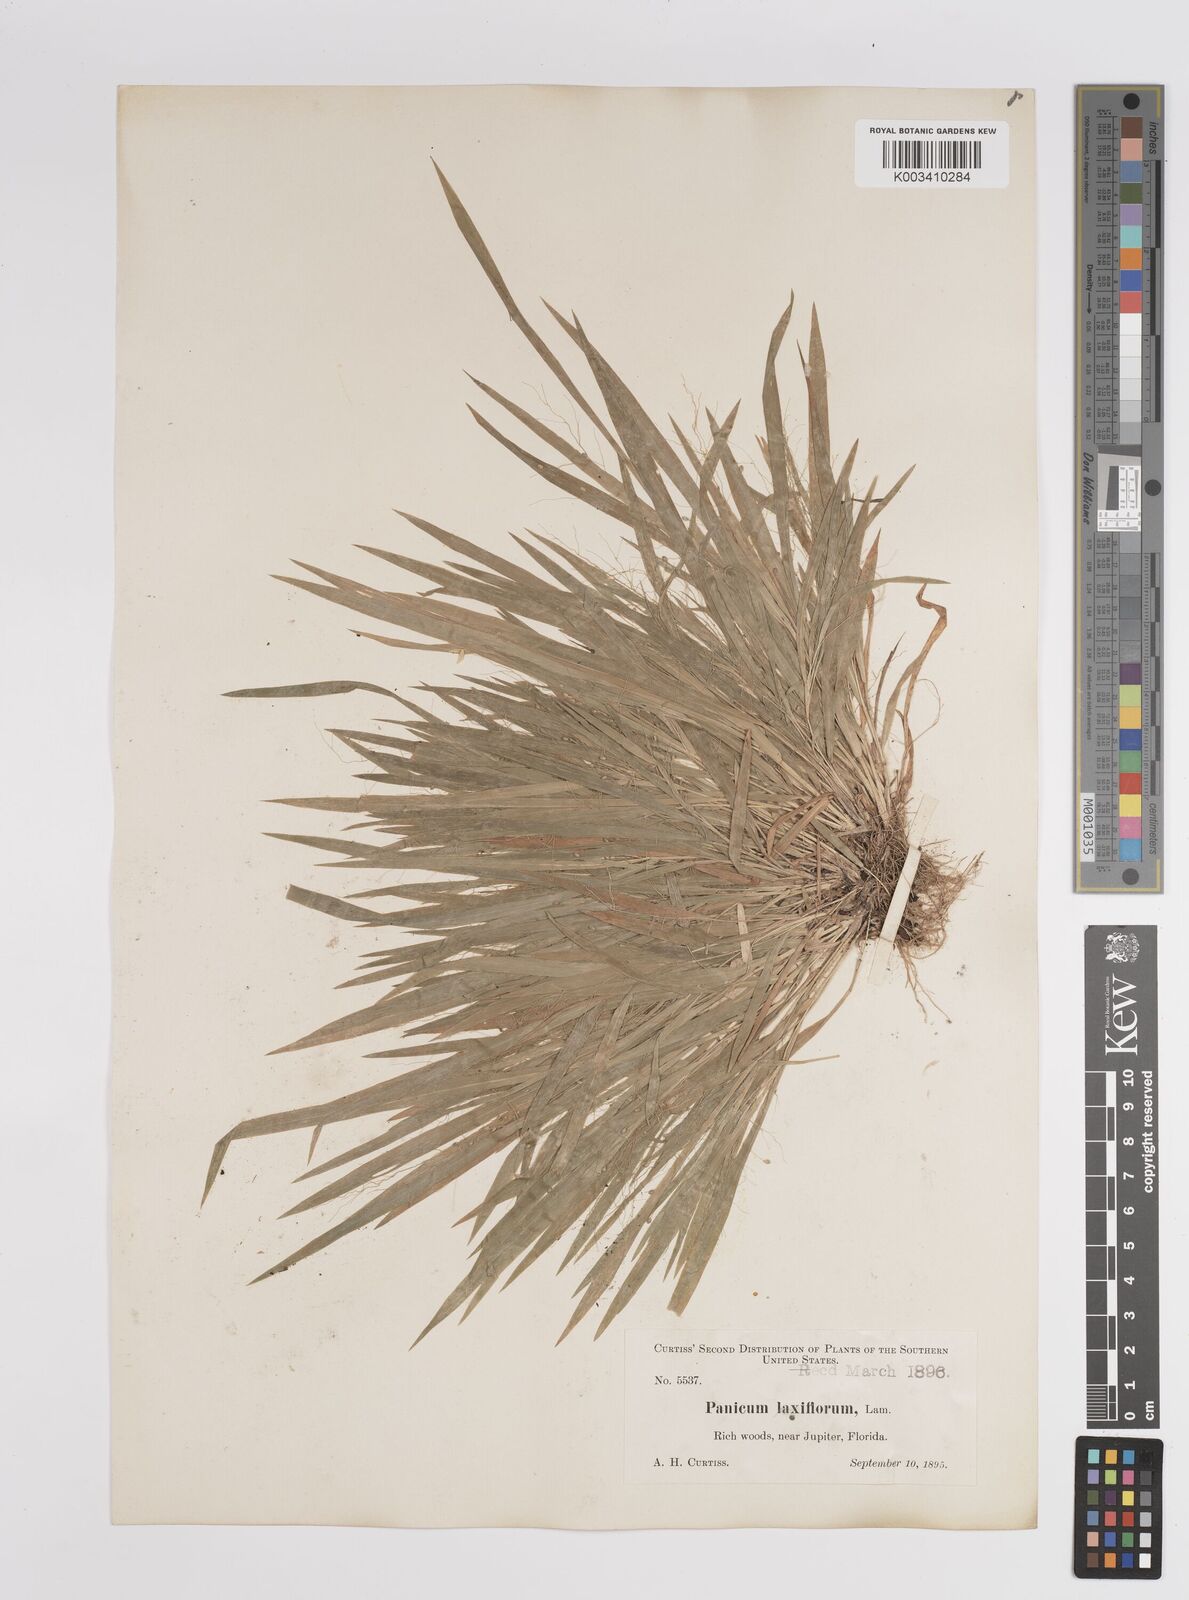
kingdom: Plantae
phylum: Tracheophyta
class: Liliopsida
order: Poales
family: Poaceae
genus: Dichanthelium
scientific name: Dichanthelium laxiflorum
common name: Soft-tuft panic grass
